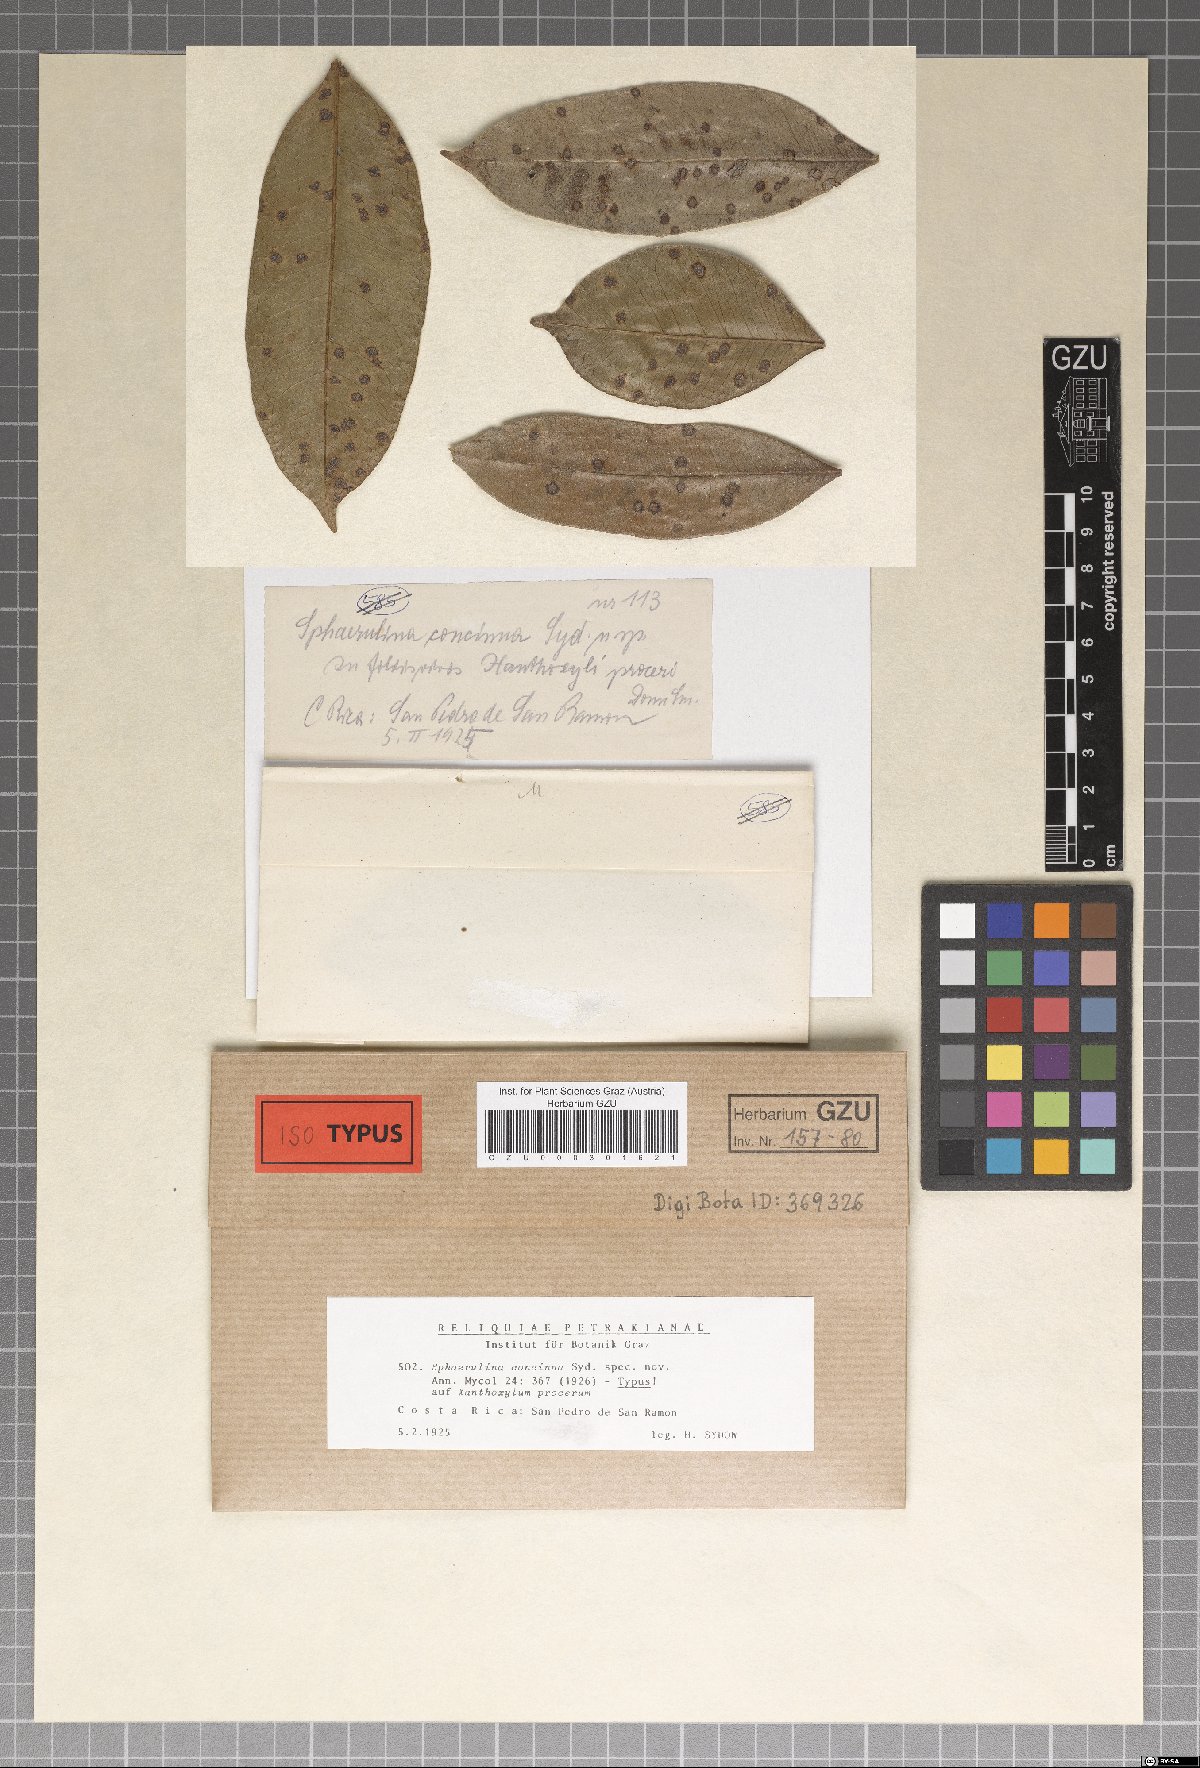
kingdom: Fungi
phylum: Ascomycota
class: Dothideomycetes
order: Mycosphaerellales
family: Mycosphaerellaceae
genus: Sphaerulina
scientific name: Sphaerulina
